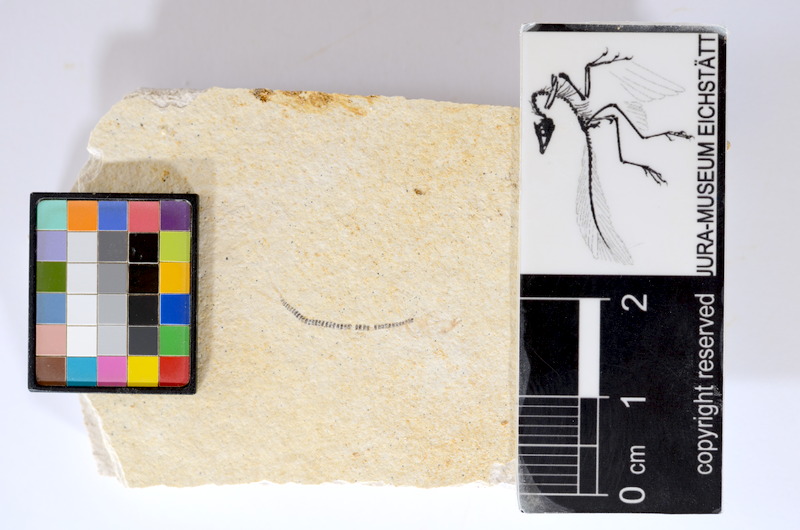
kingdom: Animalia
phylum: Chordata
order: Salmoniformes
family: Orthogonikleithridae
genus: Orthogonikleithrus
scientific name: Orthogonikleithrus hoelli
